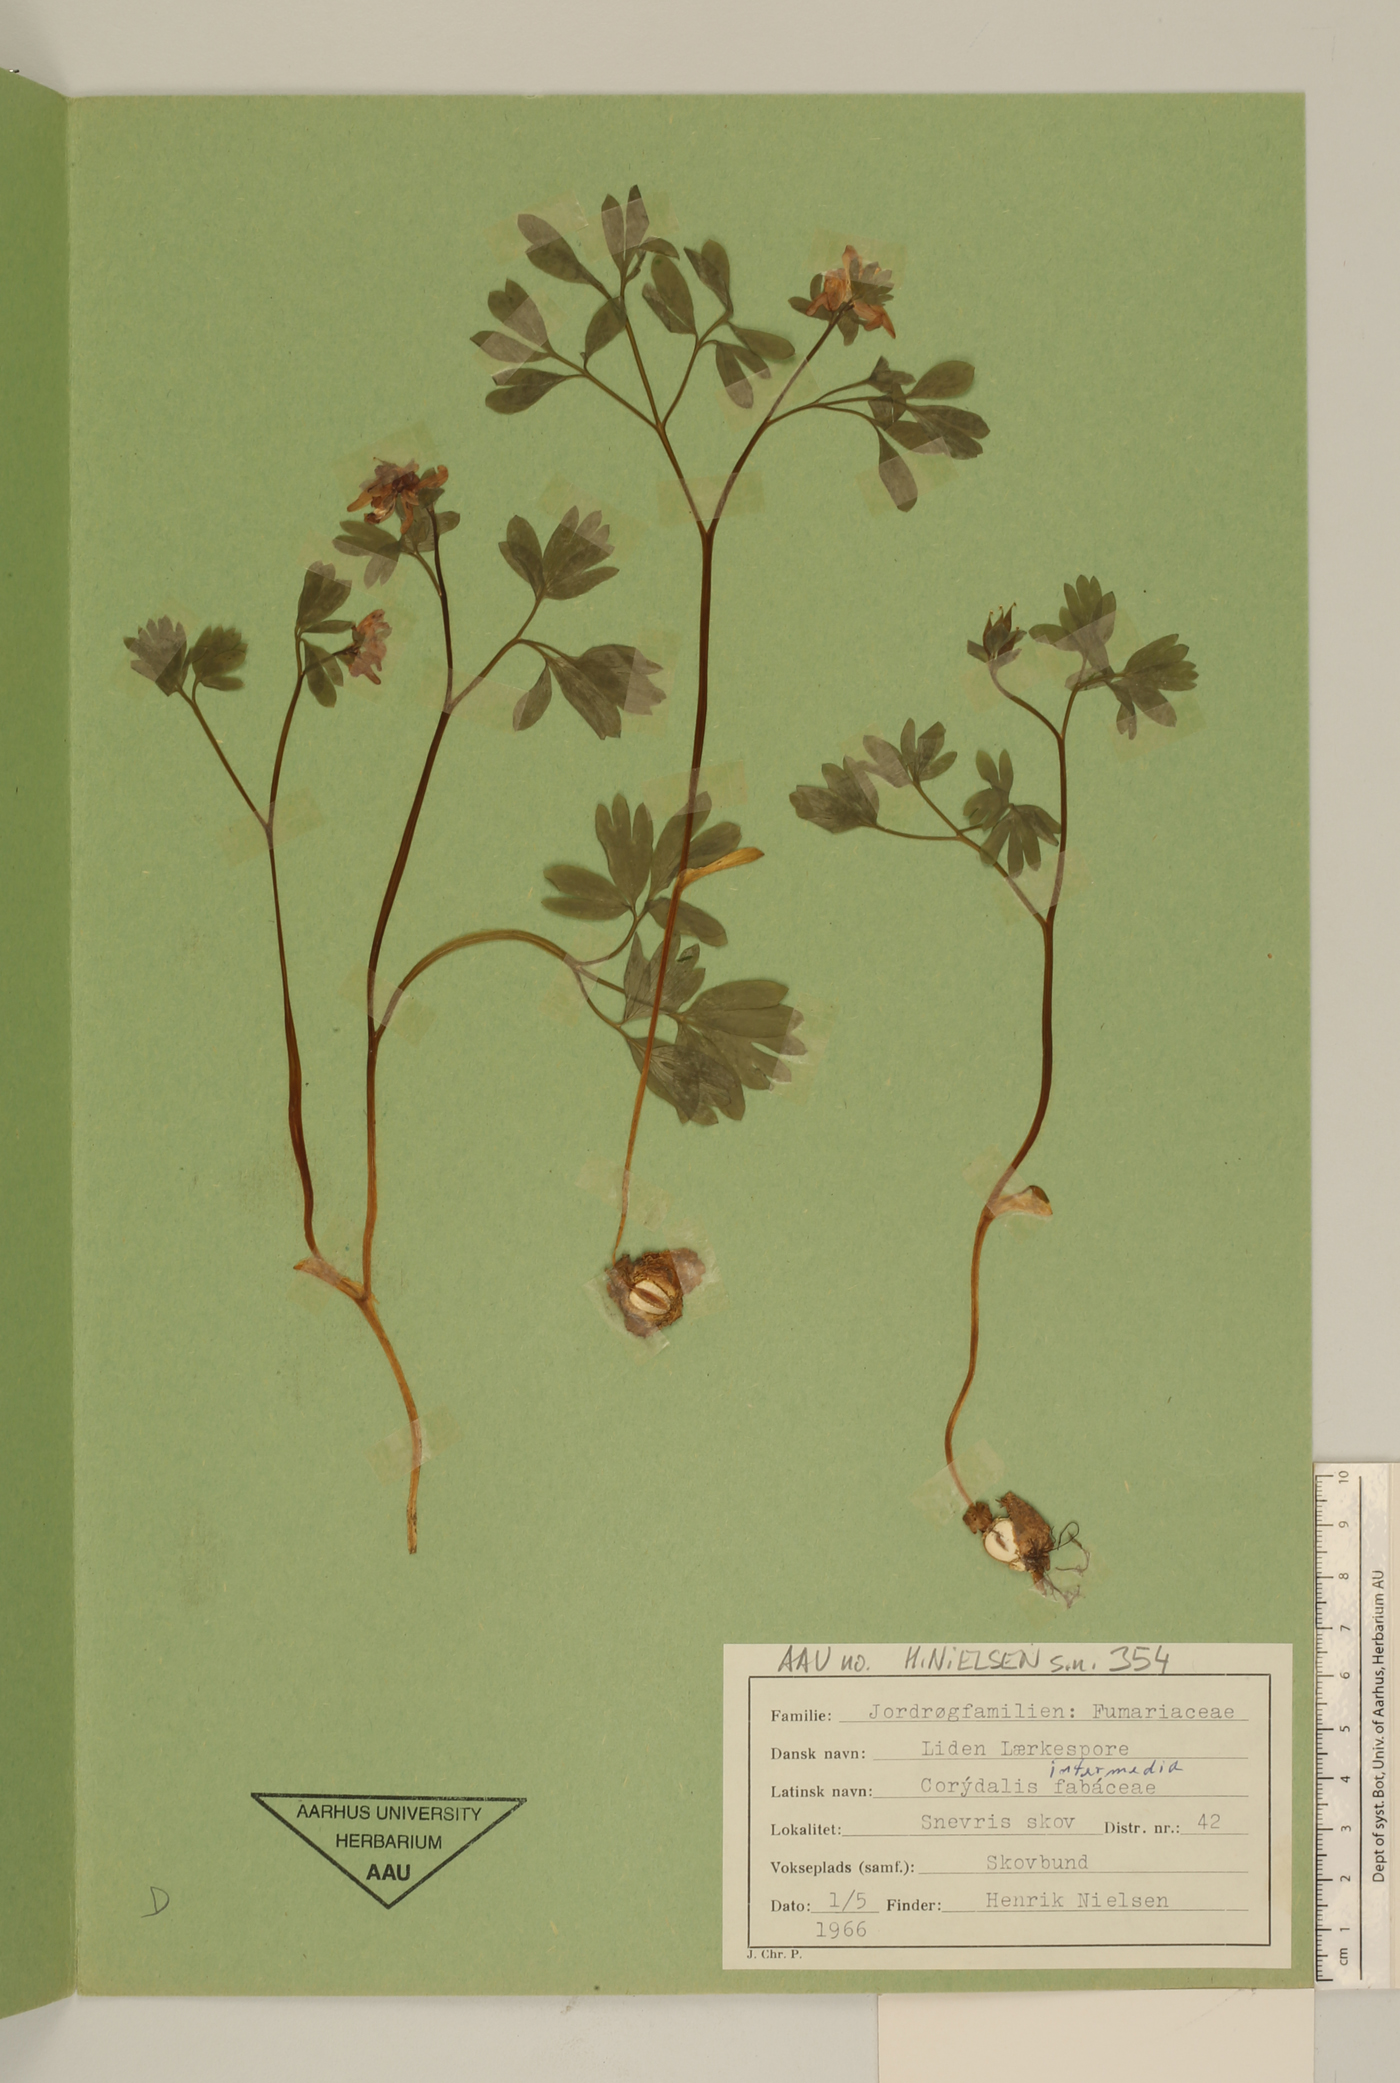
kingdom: Plantae
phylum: Tracheophyta
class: Magnoliopsida
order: Ranunculales
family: Papaveraceae
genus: Corydalis
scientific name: Corydalis intermedia
